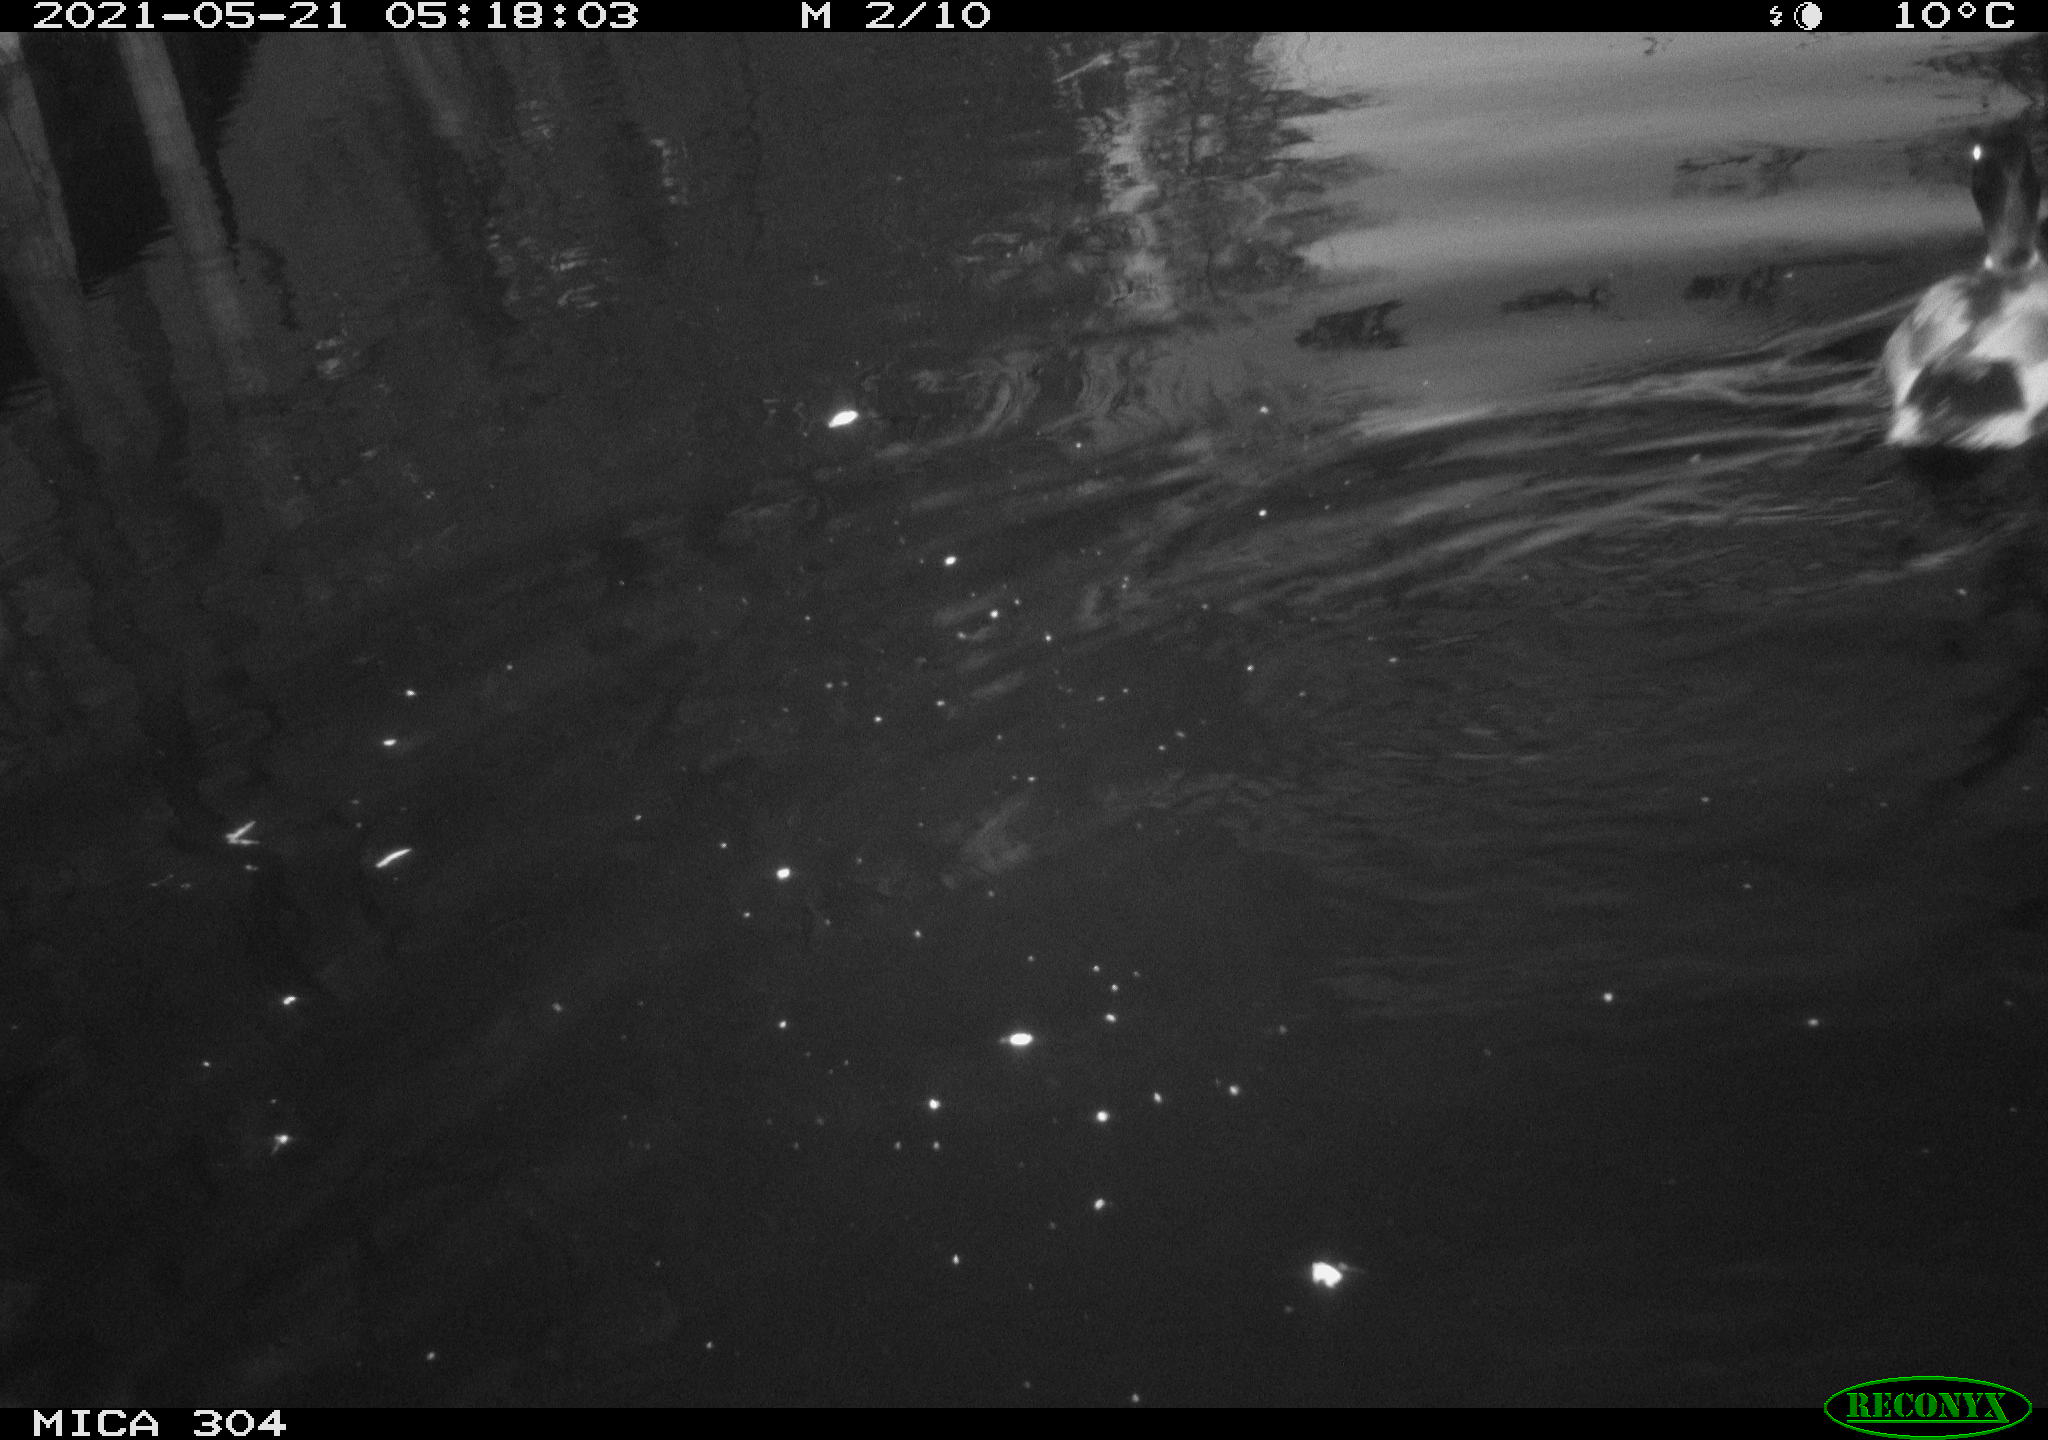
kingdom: Animalia
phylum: Chordata
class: Aves
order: Anseriformes
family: Anatidae
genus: Anas
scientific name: Anas platyrhynchos
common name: Mallard
